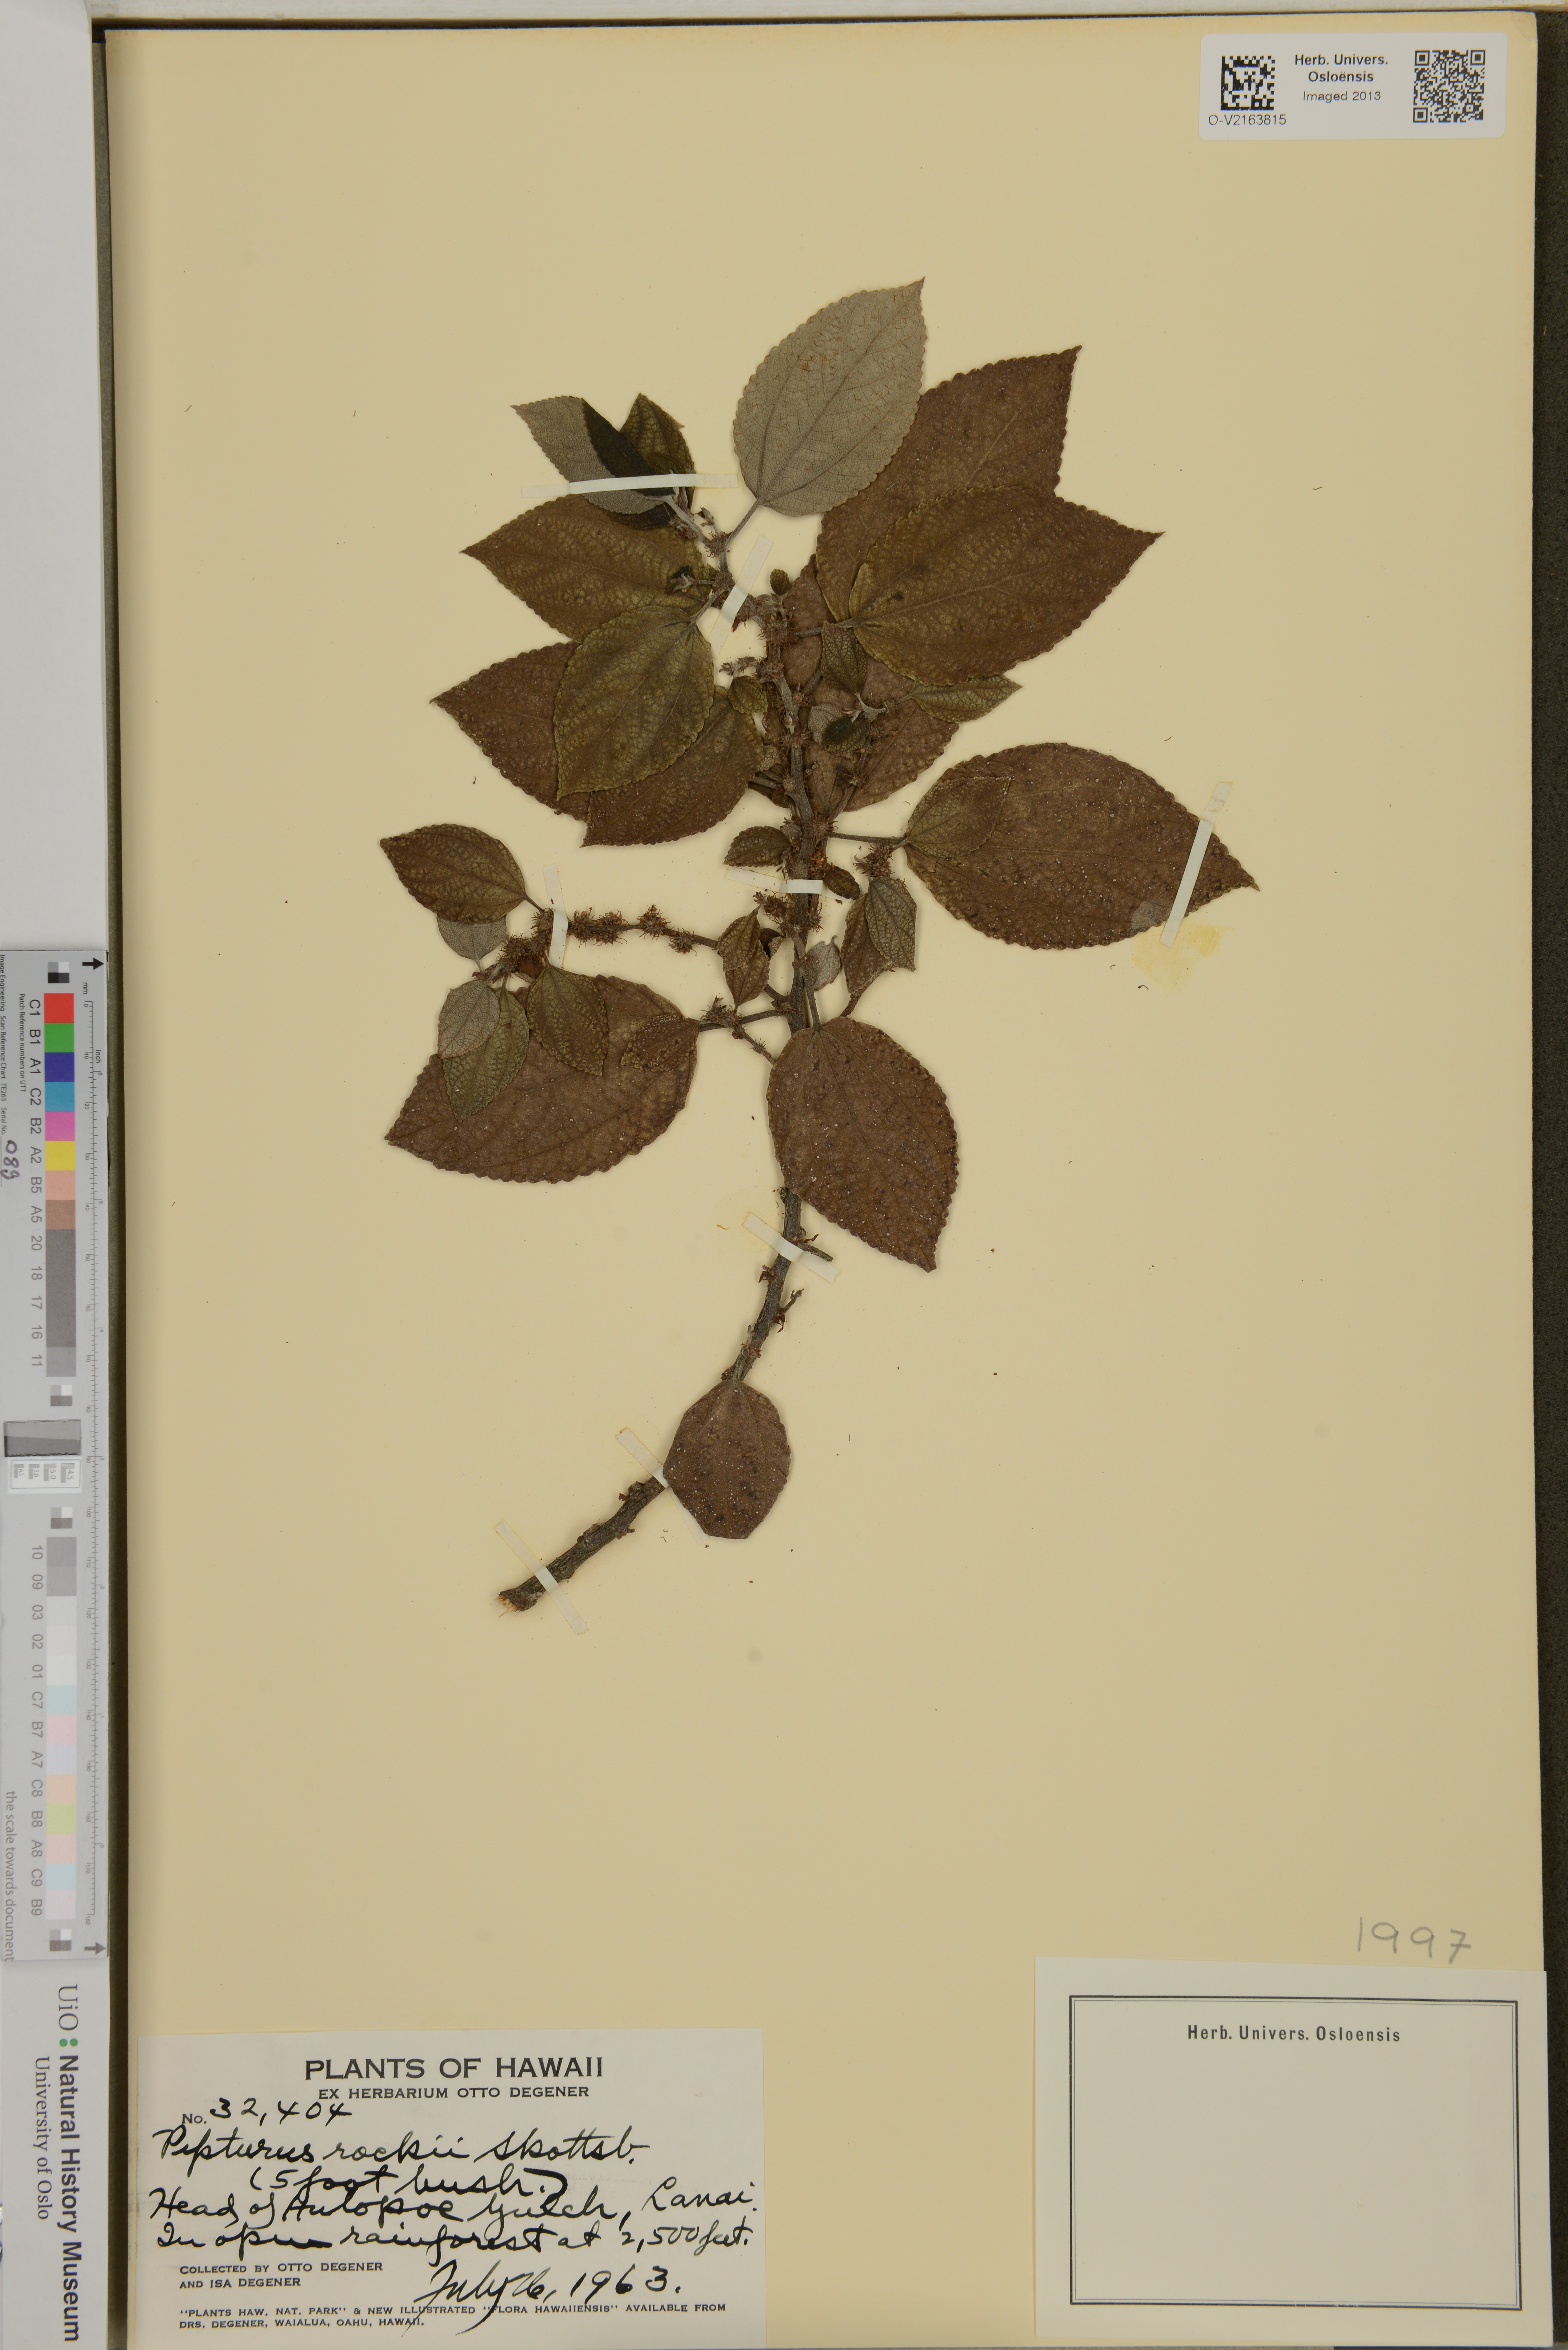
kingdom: Plantae
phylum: Tracheophyta
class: Magnoliopsida
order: Rosales
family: Urticaceae
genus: Pipturus
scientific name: Pipturus albidus
